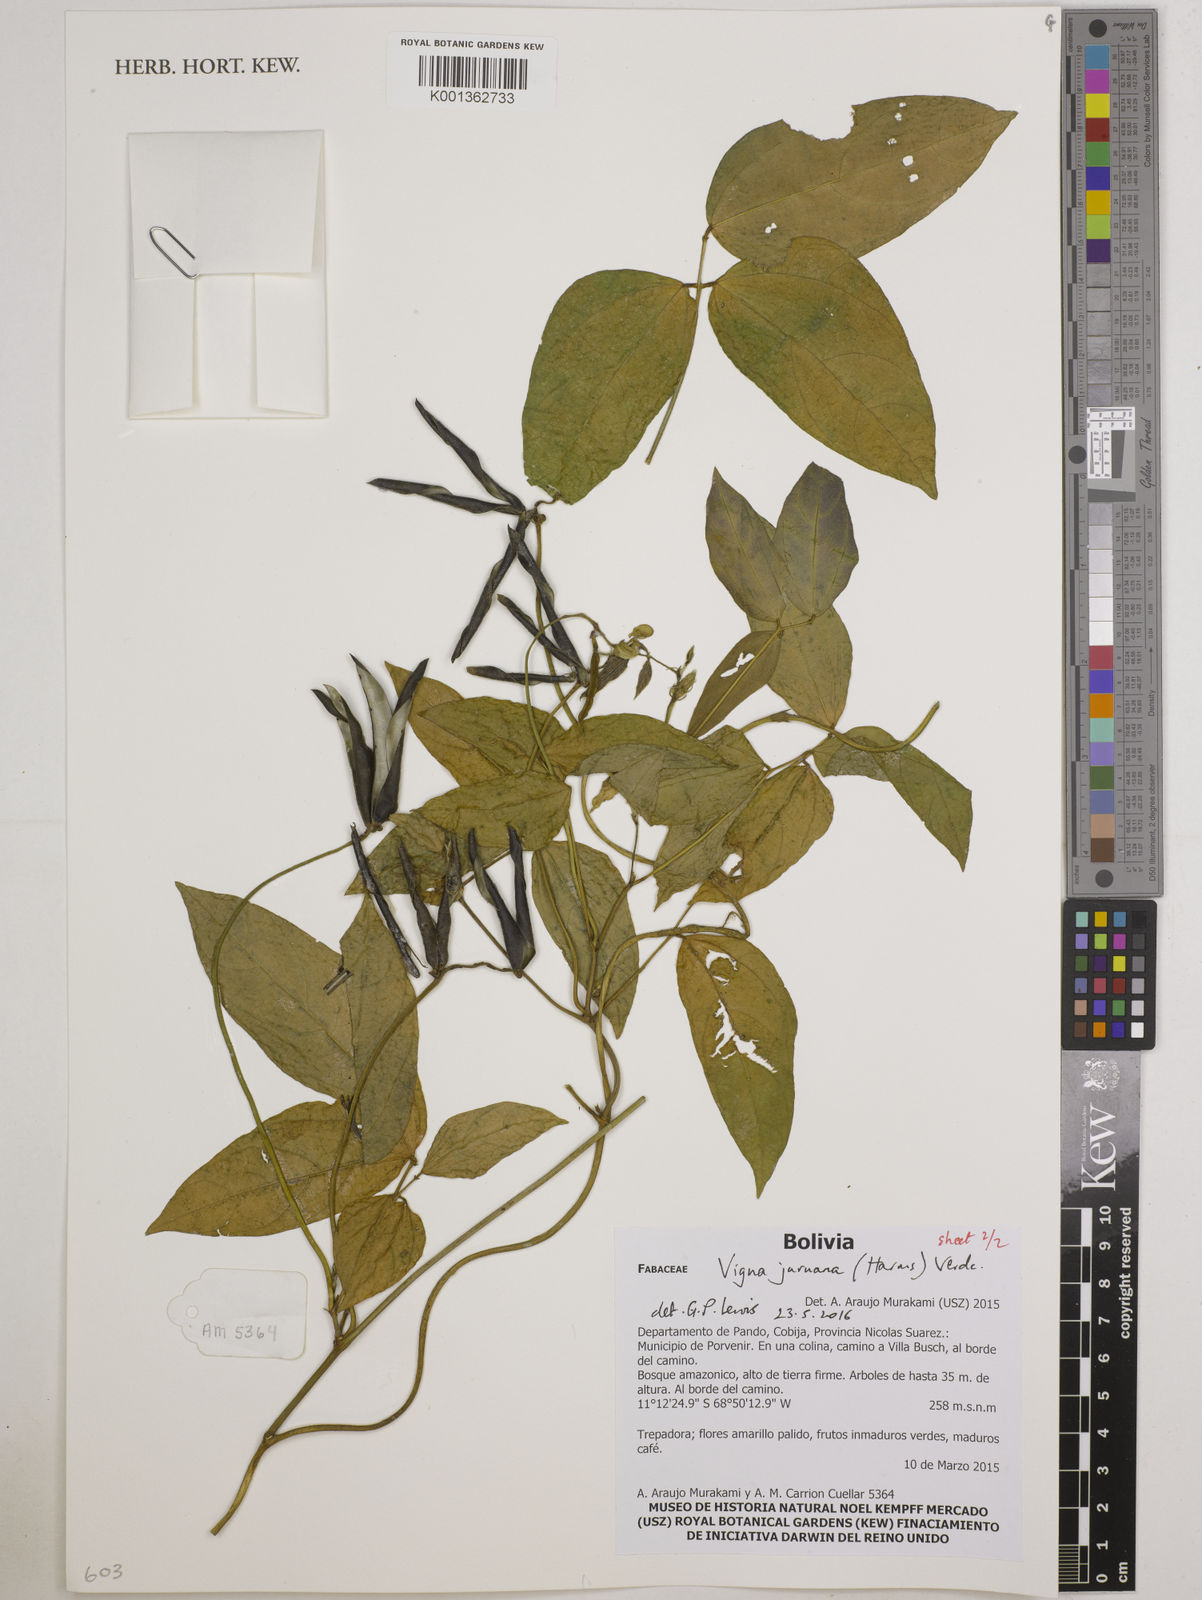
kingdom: Plantae
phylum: Tracheophyta
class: Magnoliopsida
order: Fabales
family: Fabaceae
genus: Vigna
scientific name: Vigna juruana
